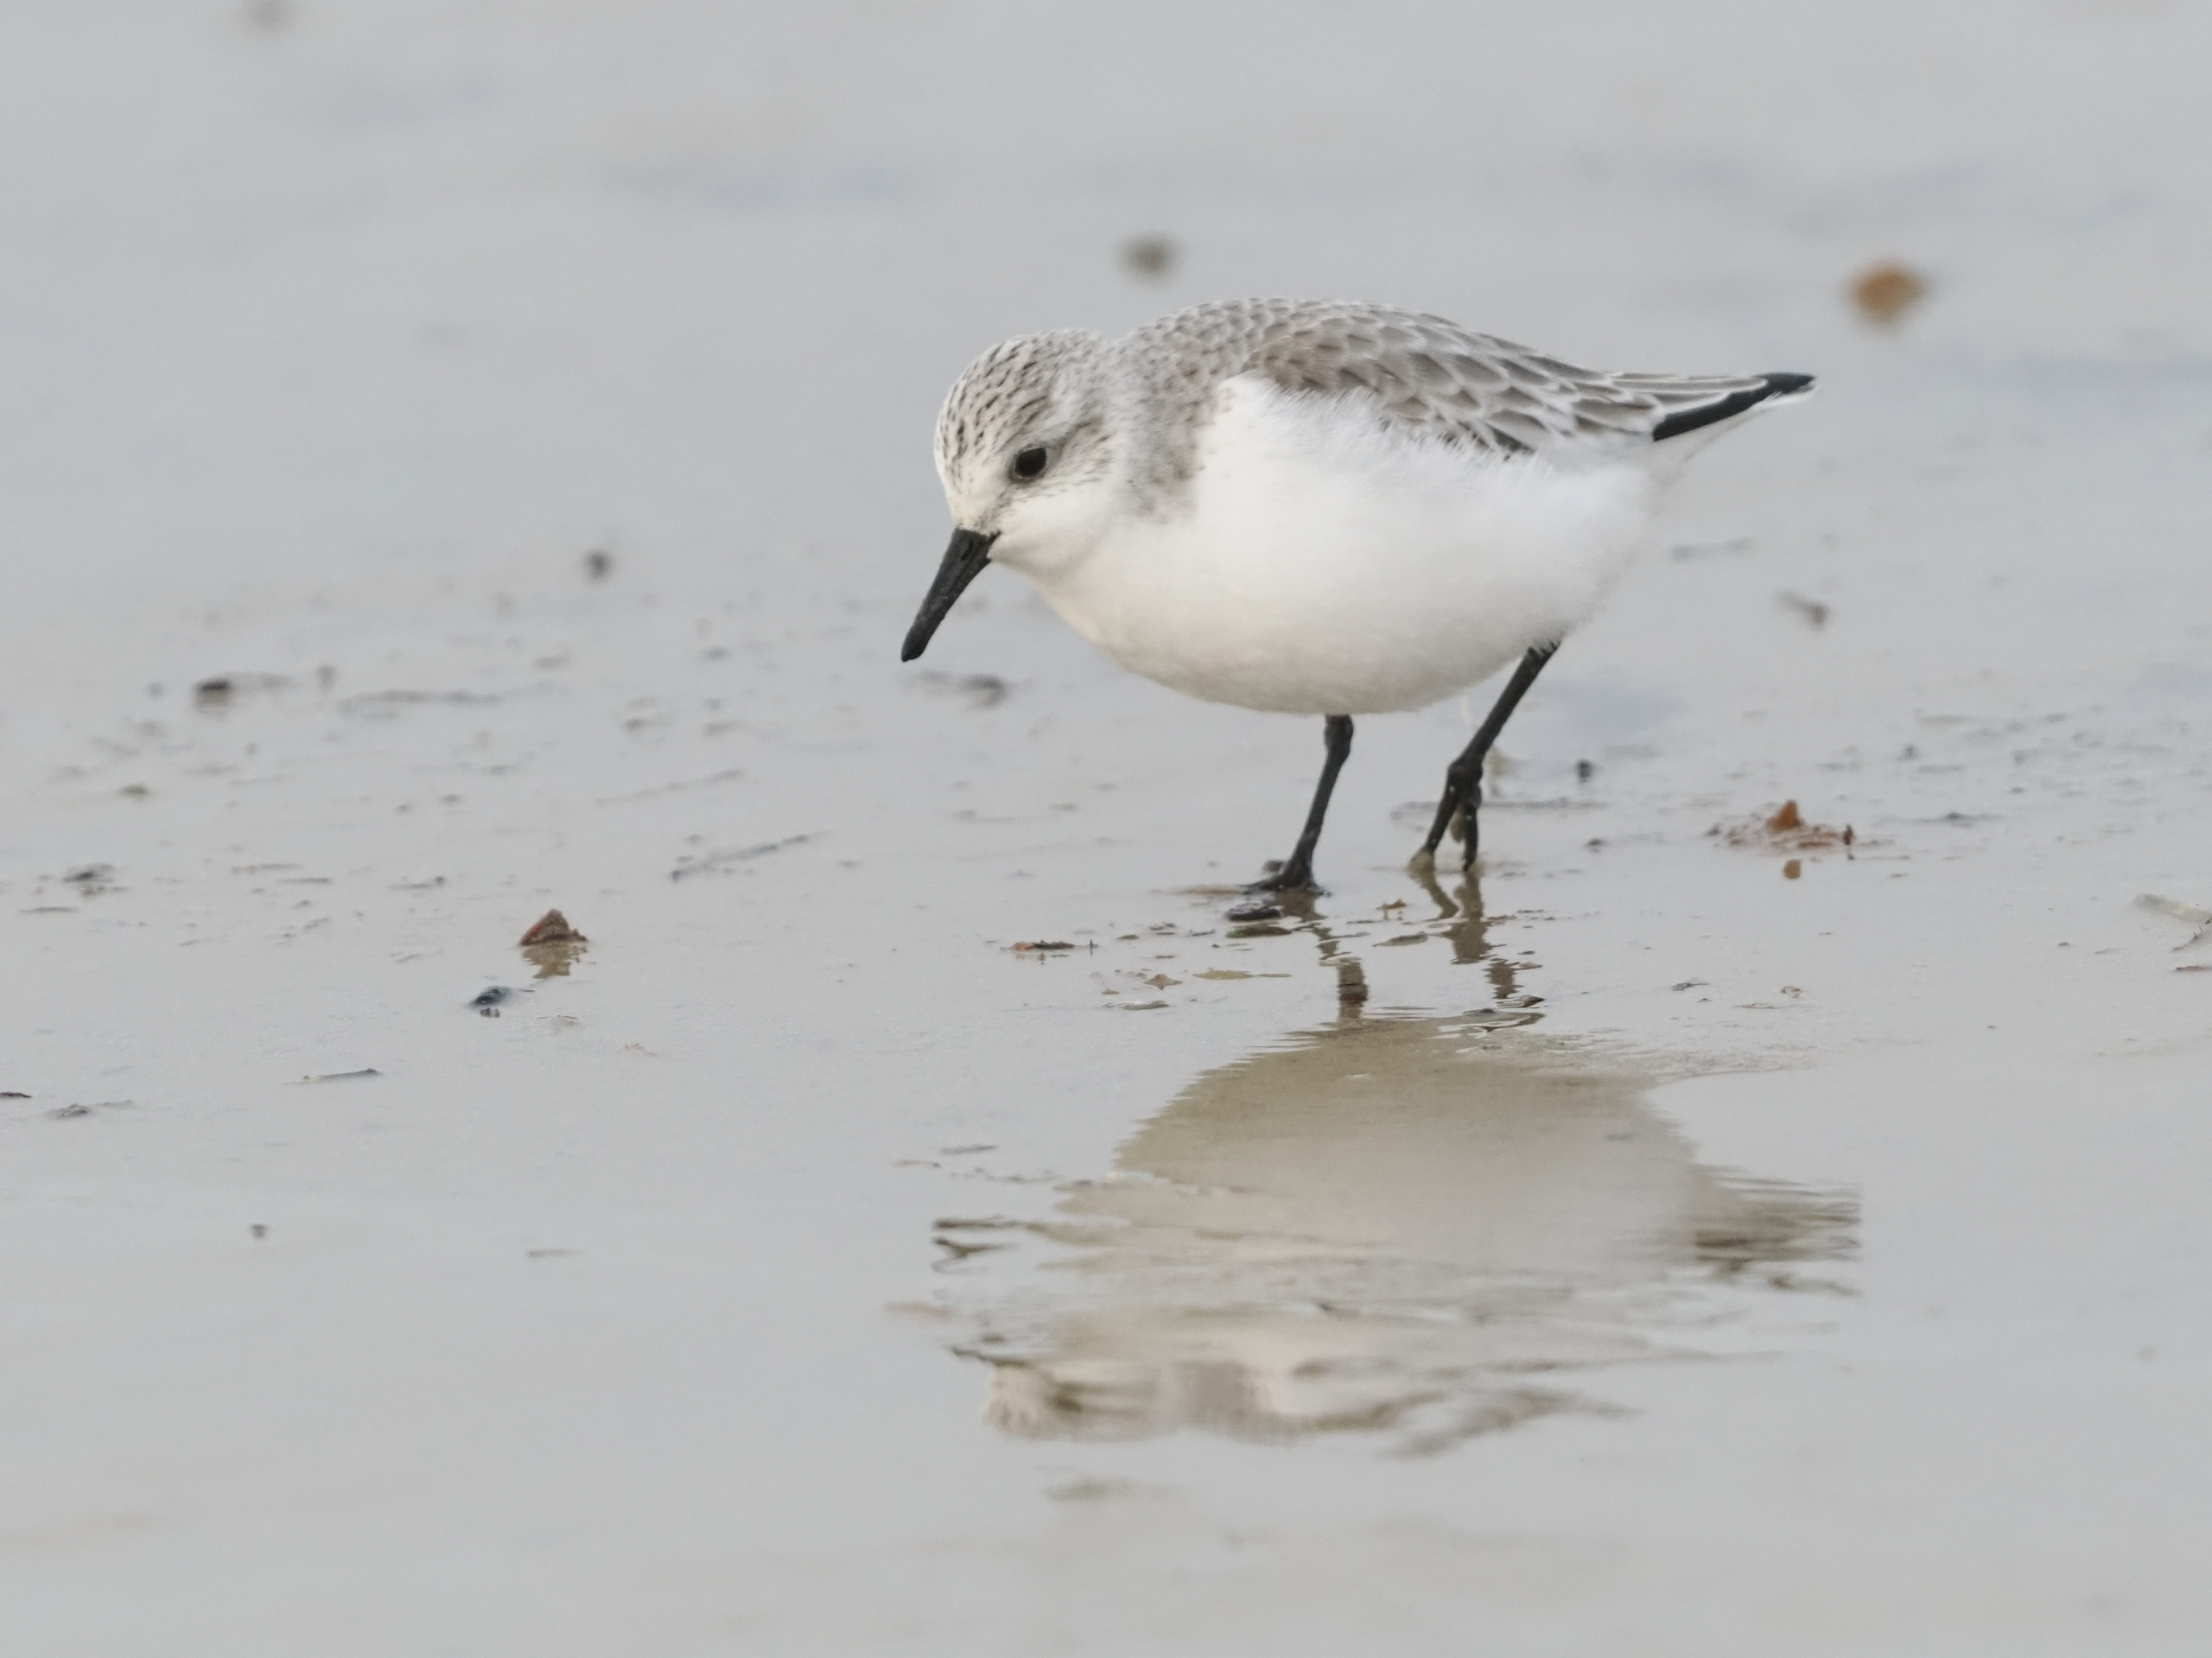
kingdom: Animalia
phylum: Chordata
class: Aves
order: Charadriiformes
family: Scolopacidae
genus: Calidris
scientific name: Calidris alba
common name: Sandløber
